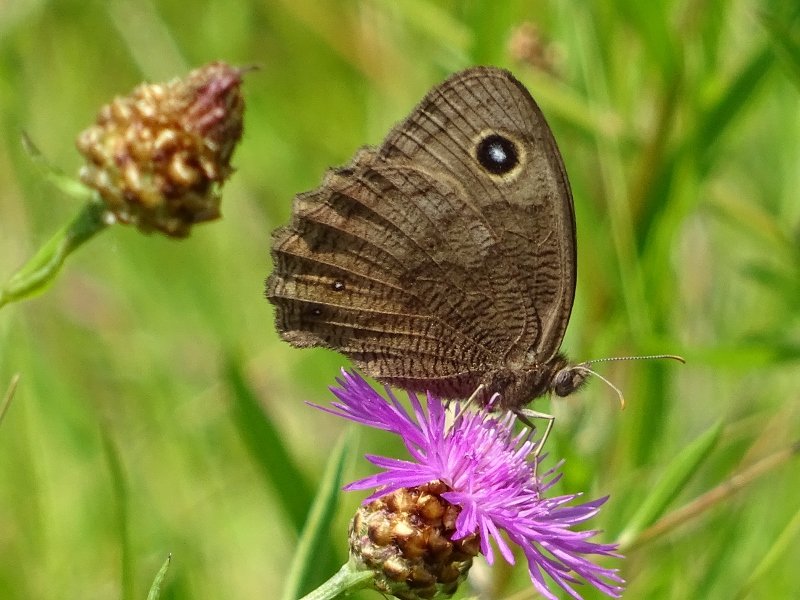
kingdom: Animalia
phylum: Arthropoda
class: Insecta
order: Lepidoptera
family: Nymphalidae
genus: Cercyonis
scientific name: Cercyonis pegala
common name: Common Wood-Nymph
